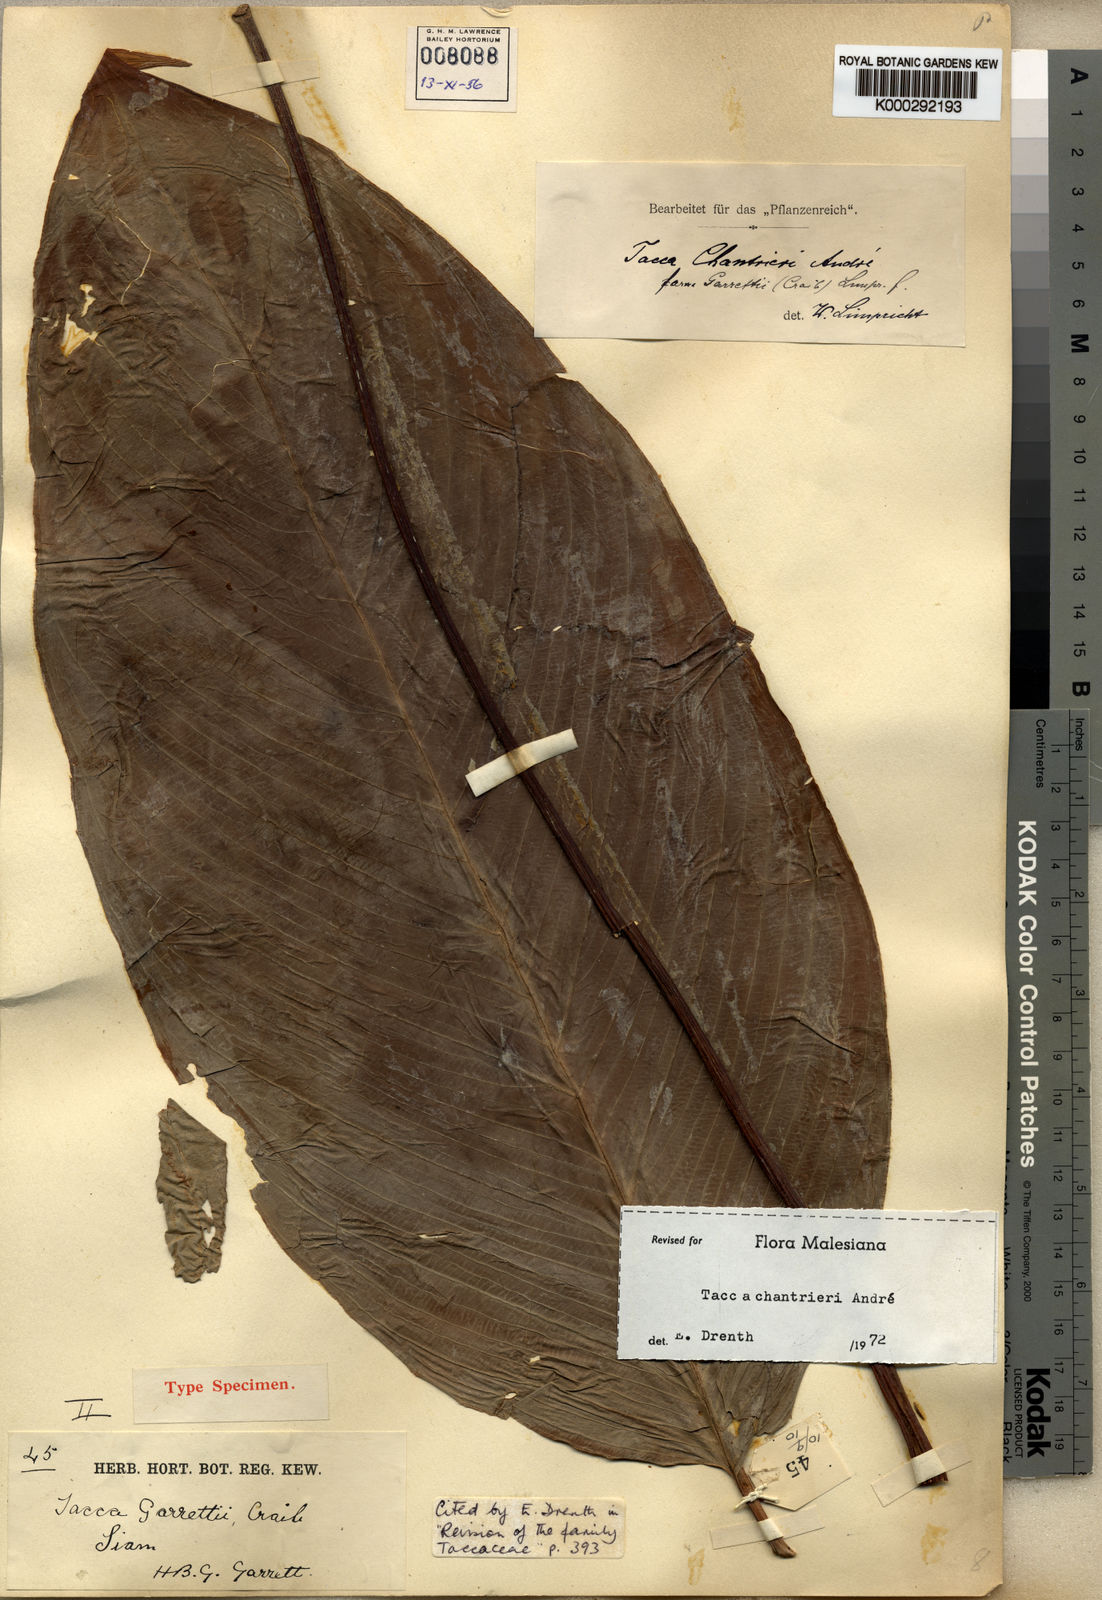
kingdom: Plantae
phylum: Tracheophyta
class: Liliopsida
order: Dioscoreales
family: Dioscoreaceae
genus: Tacca
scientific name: Tacca
